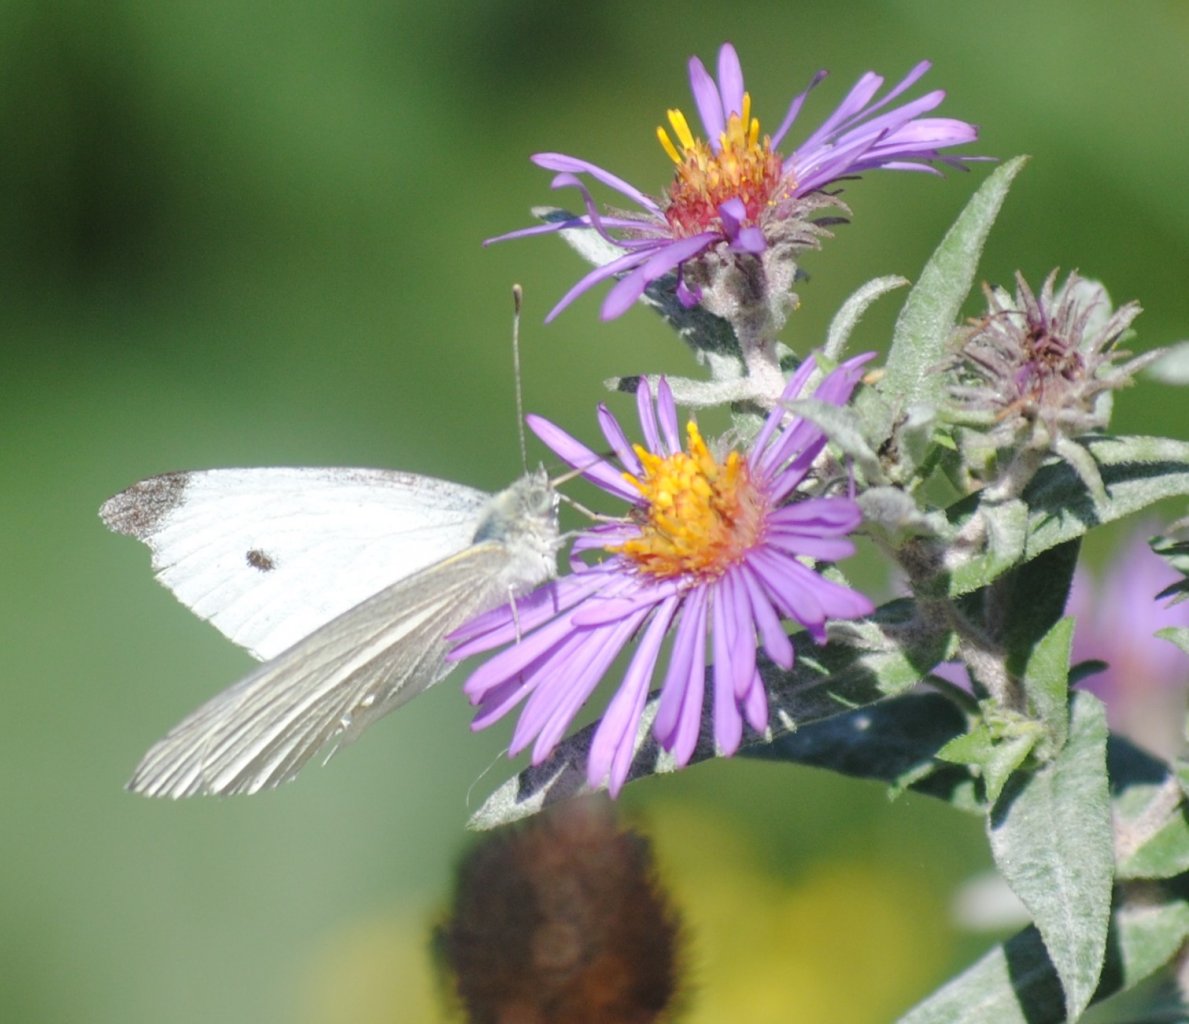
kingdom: Animalia
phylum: Arthropoda
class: Insecta
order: Lepidoptera
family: Pieridae
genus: Pieris
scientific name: Pieris rapae
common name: Cabbage White
